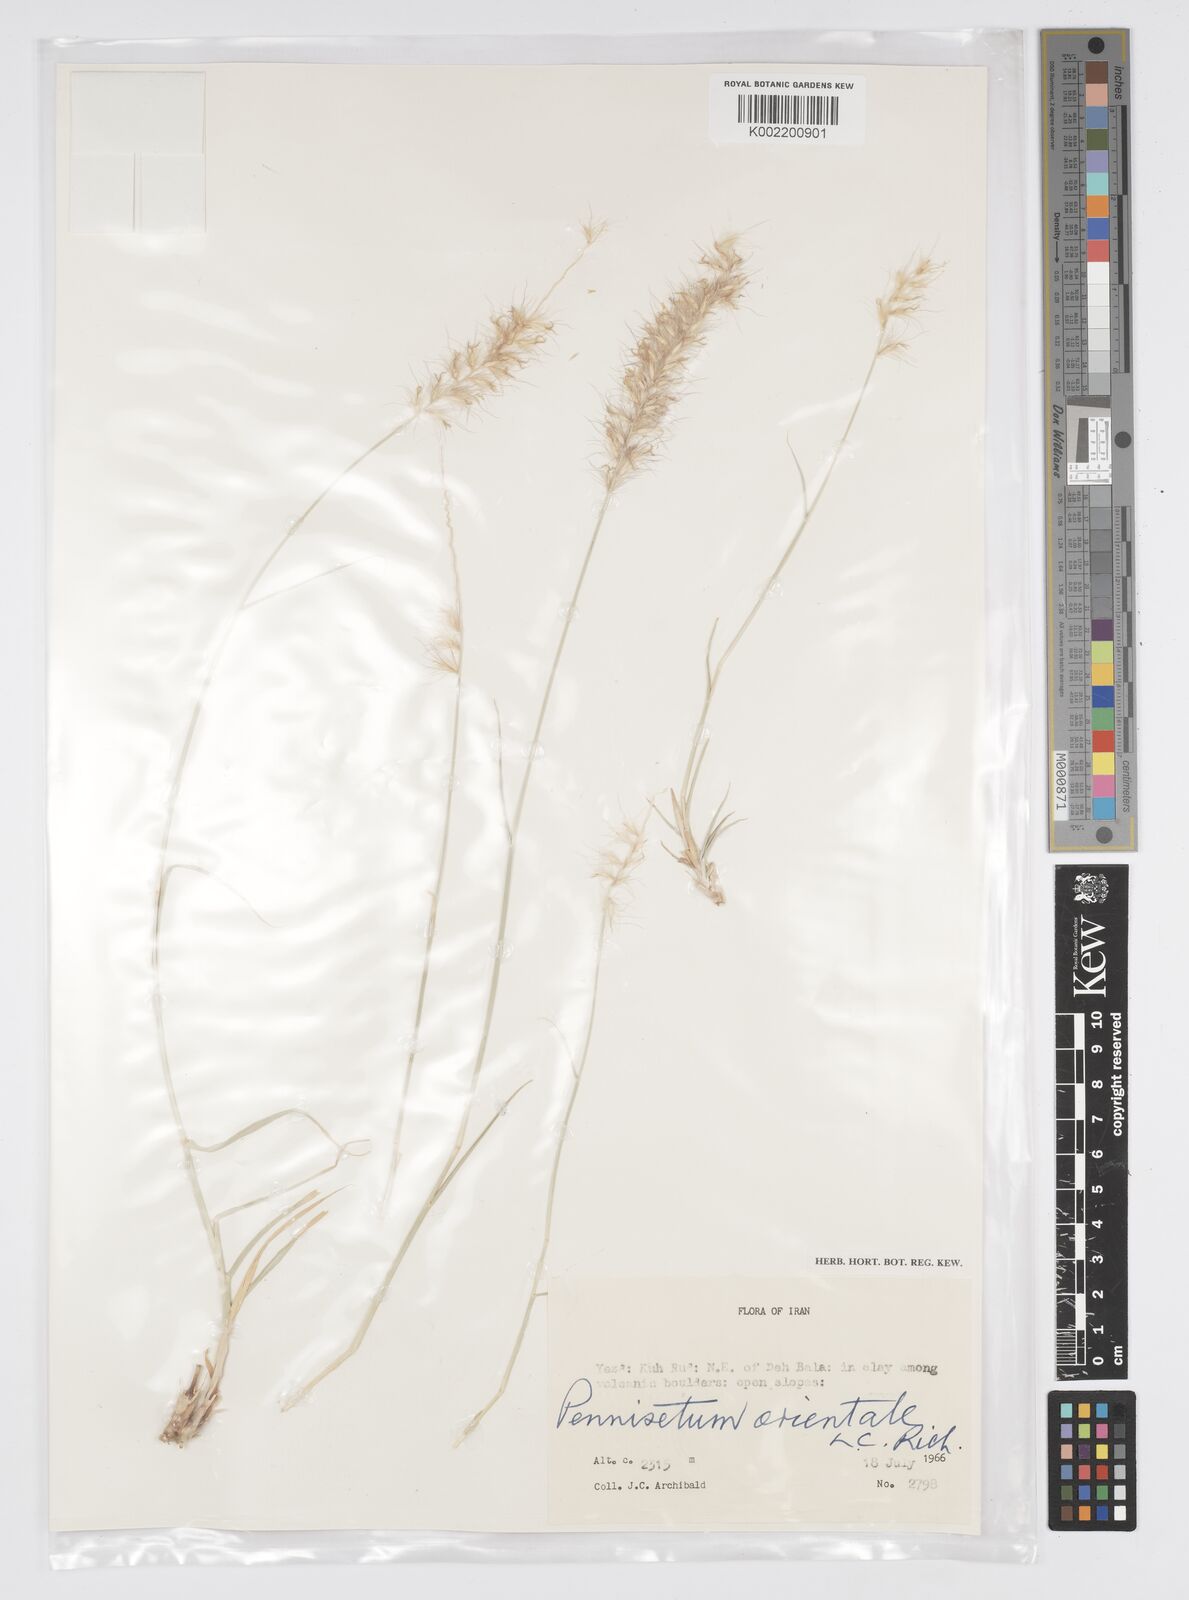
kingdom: Plantae
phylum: Tracheophyta
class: Liliopsida
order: Poales
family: Poaceae
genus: Cenchrus
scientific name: Cenchrus orientalis
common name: Oriental fountain grass
